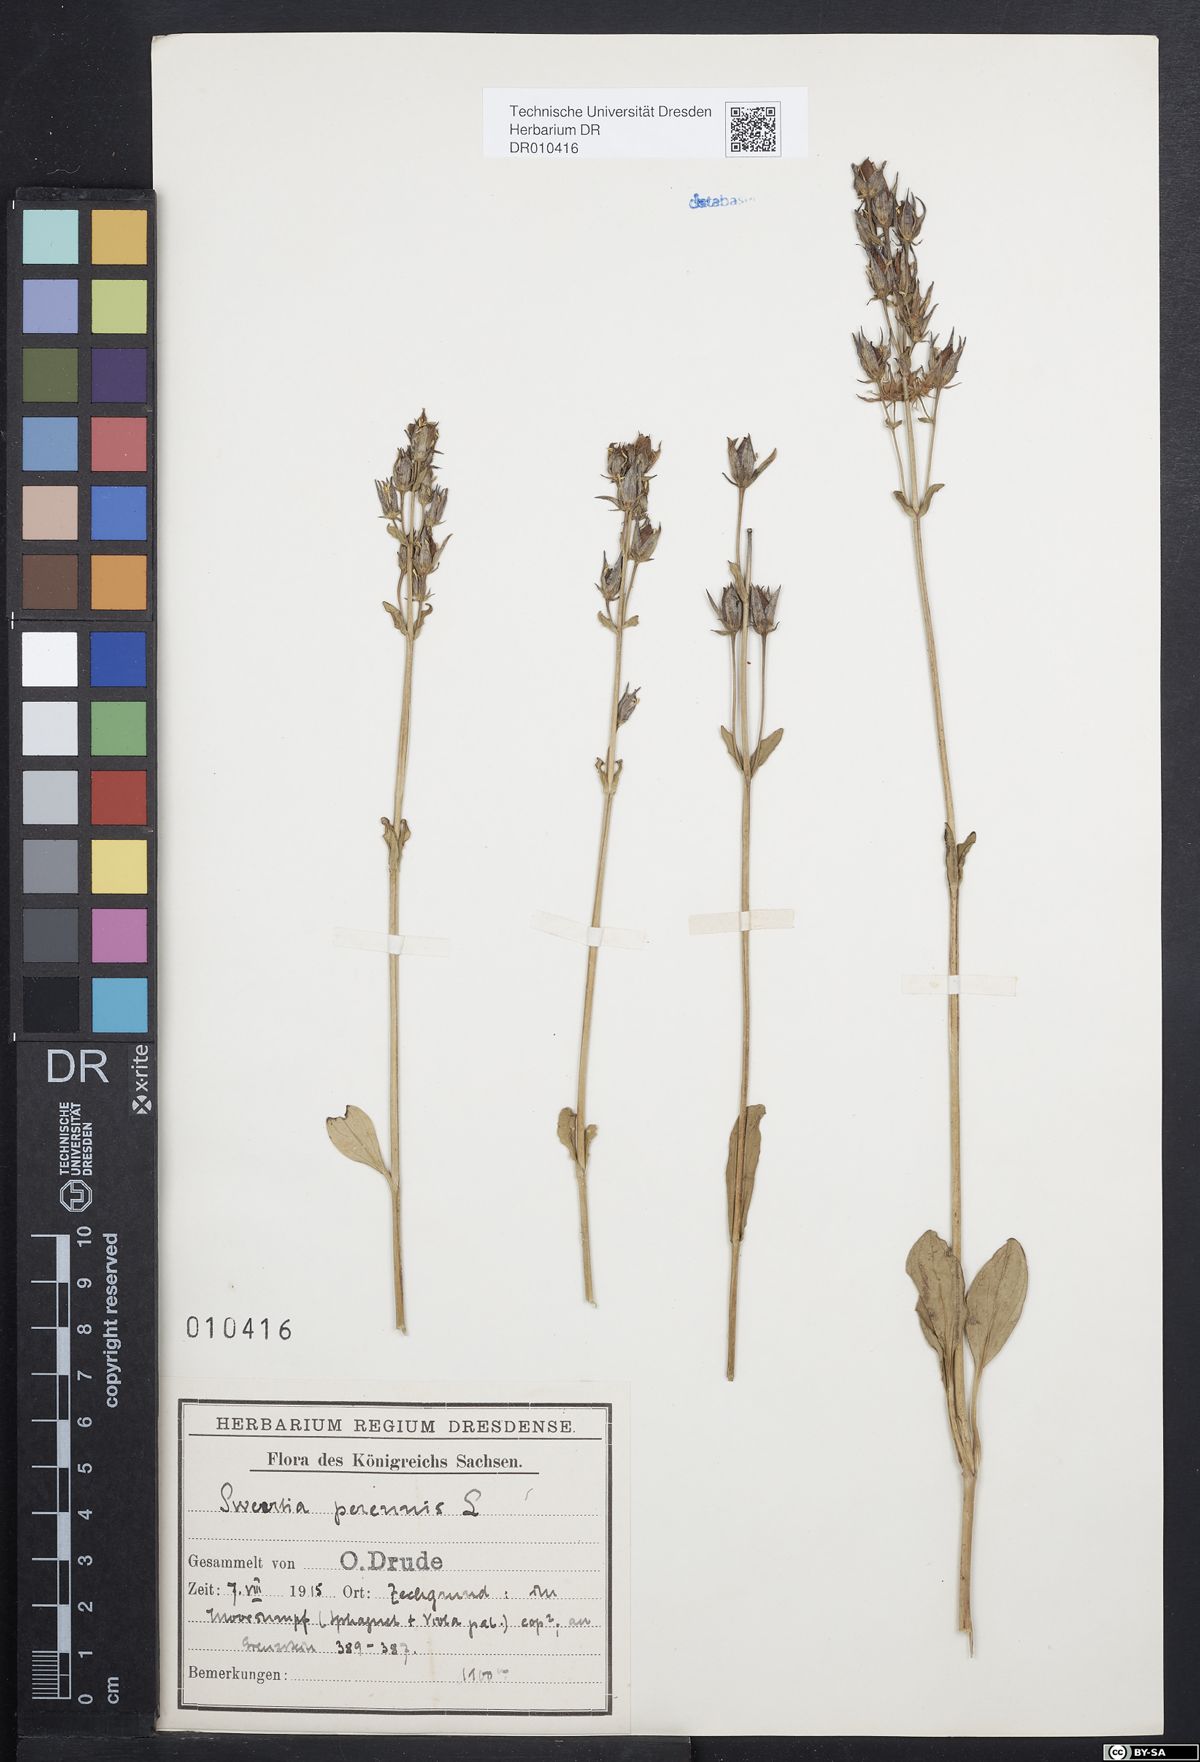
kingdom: Plantae
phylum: Tracheophyta
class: Magnoliopsida
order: Gentianales
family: Gentianaceae
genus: Swertia
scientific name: Swertia perennis
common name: Alpine bog swertia
